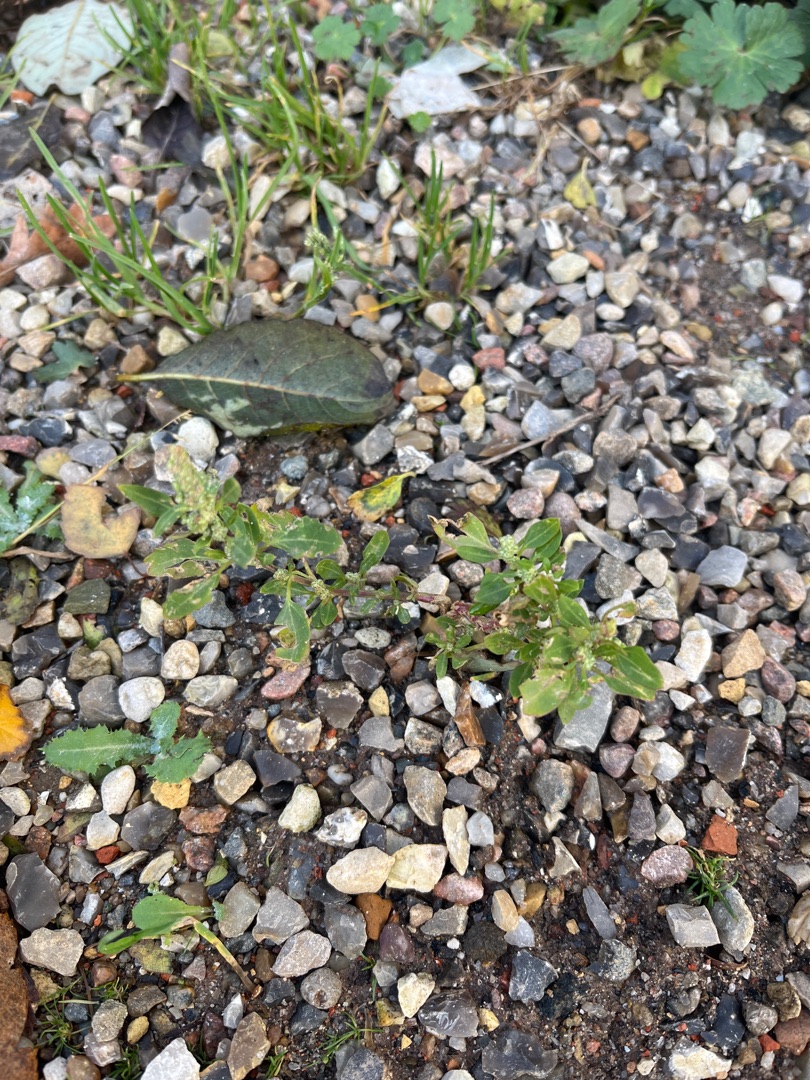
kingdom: Plantae
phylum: Tracheophyta
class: Magnoliopsida
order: Caryophyllales
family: Amaranthaceae
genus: Chenopodium
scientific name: Chenopodium album
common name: Hvidmelet gåsefod
